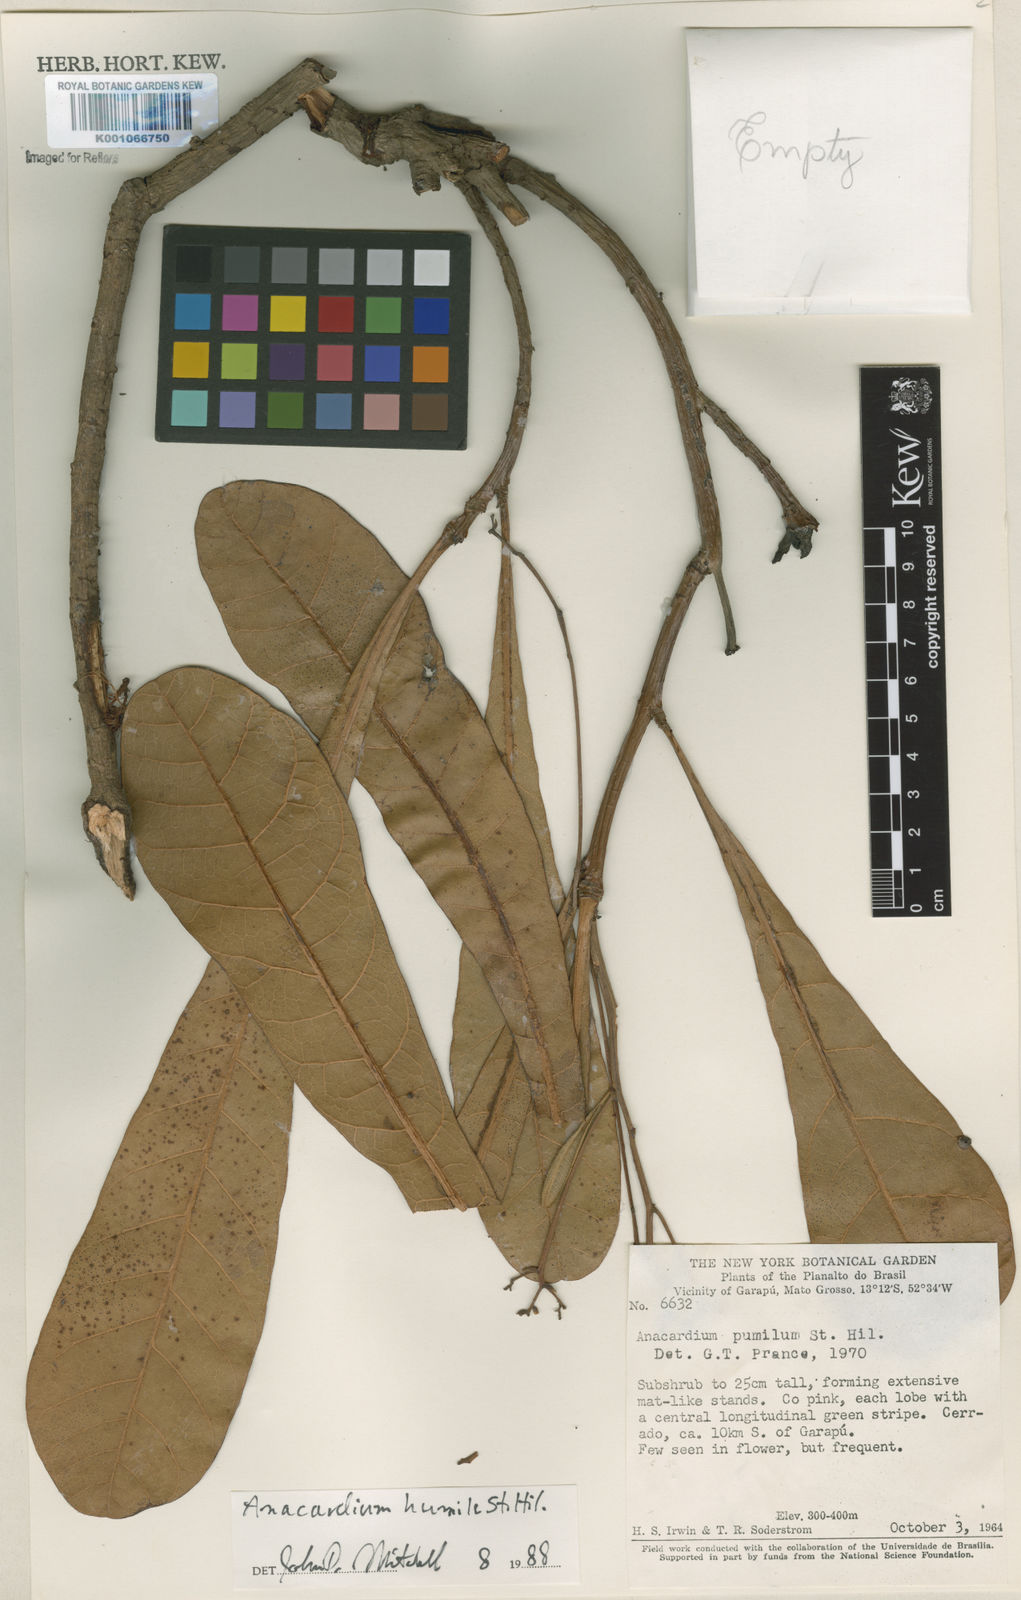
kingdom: Plantae
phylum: Tracheophyta
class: Magnoliopsida
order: Sapindales
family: Anacardiaceae
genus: Anacardium
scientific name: Anacardium humile
